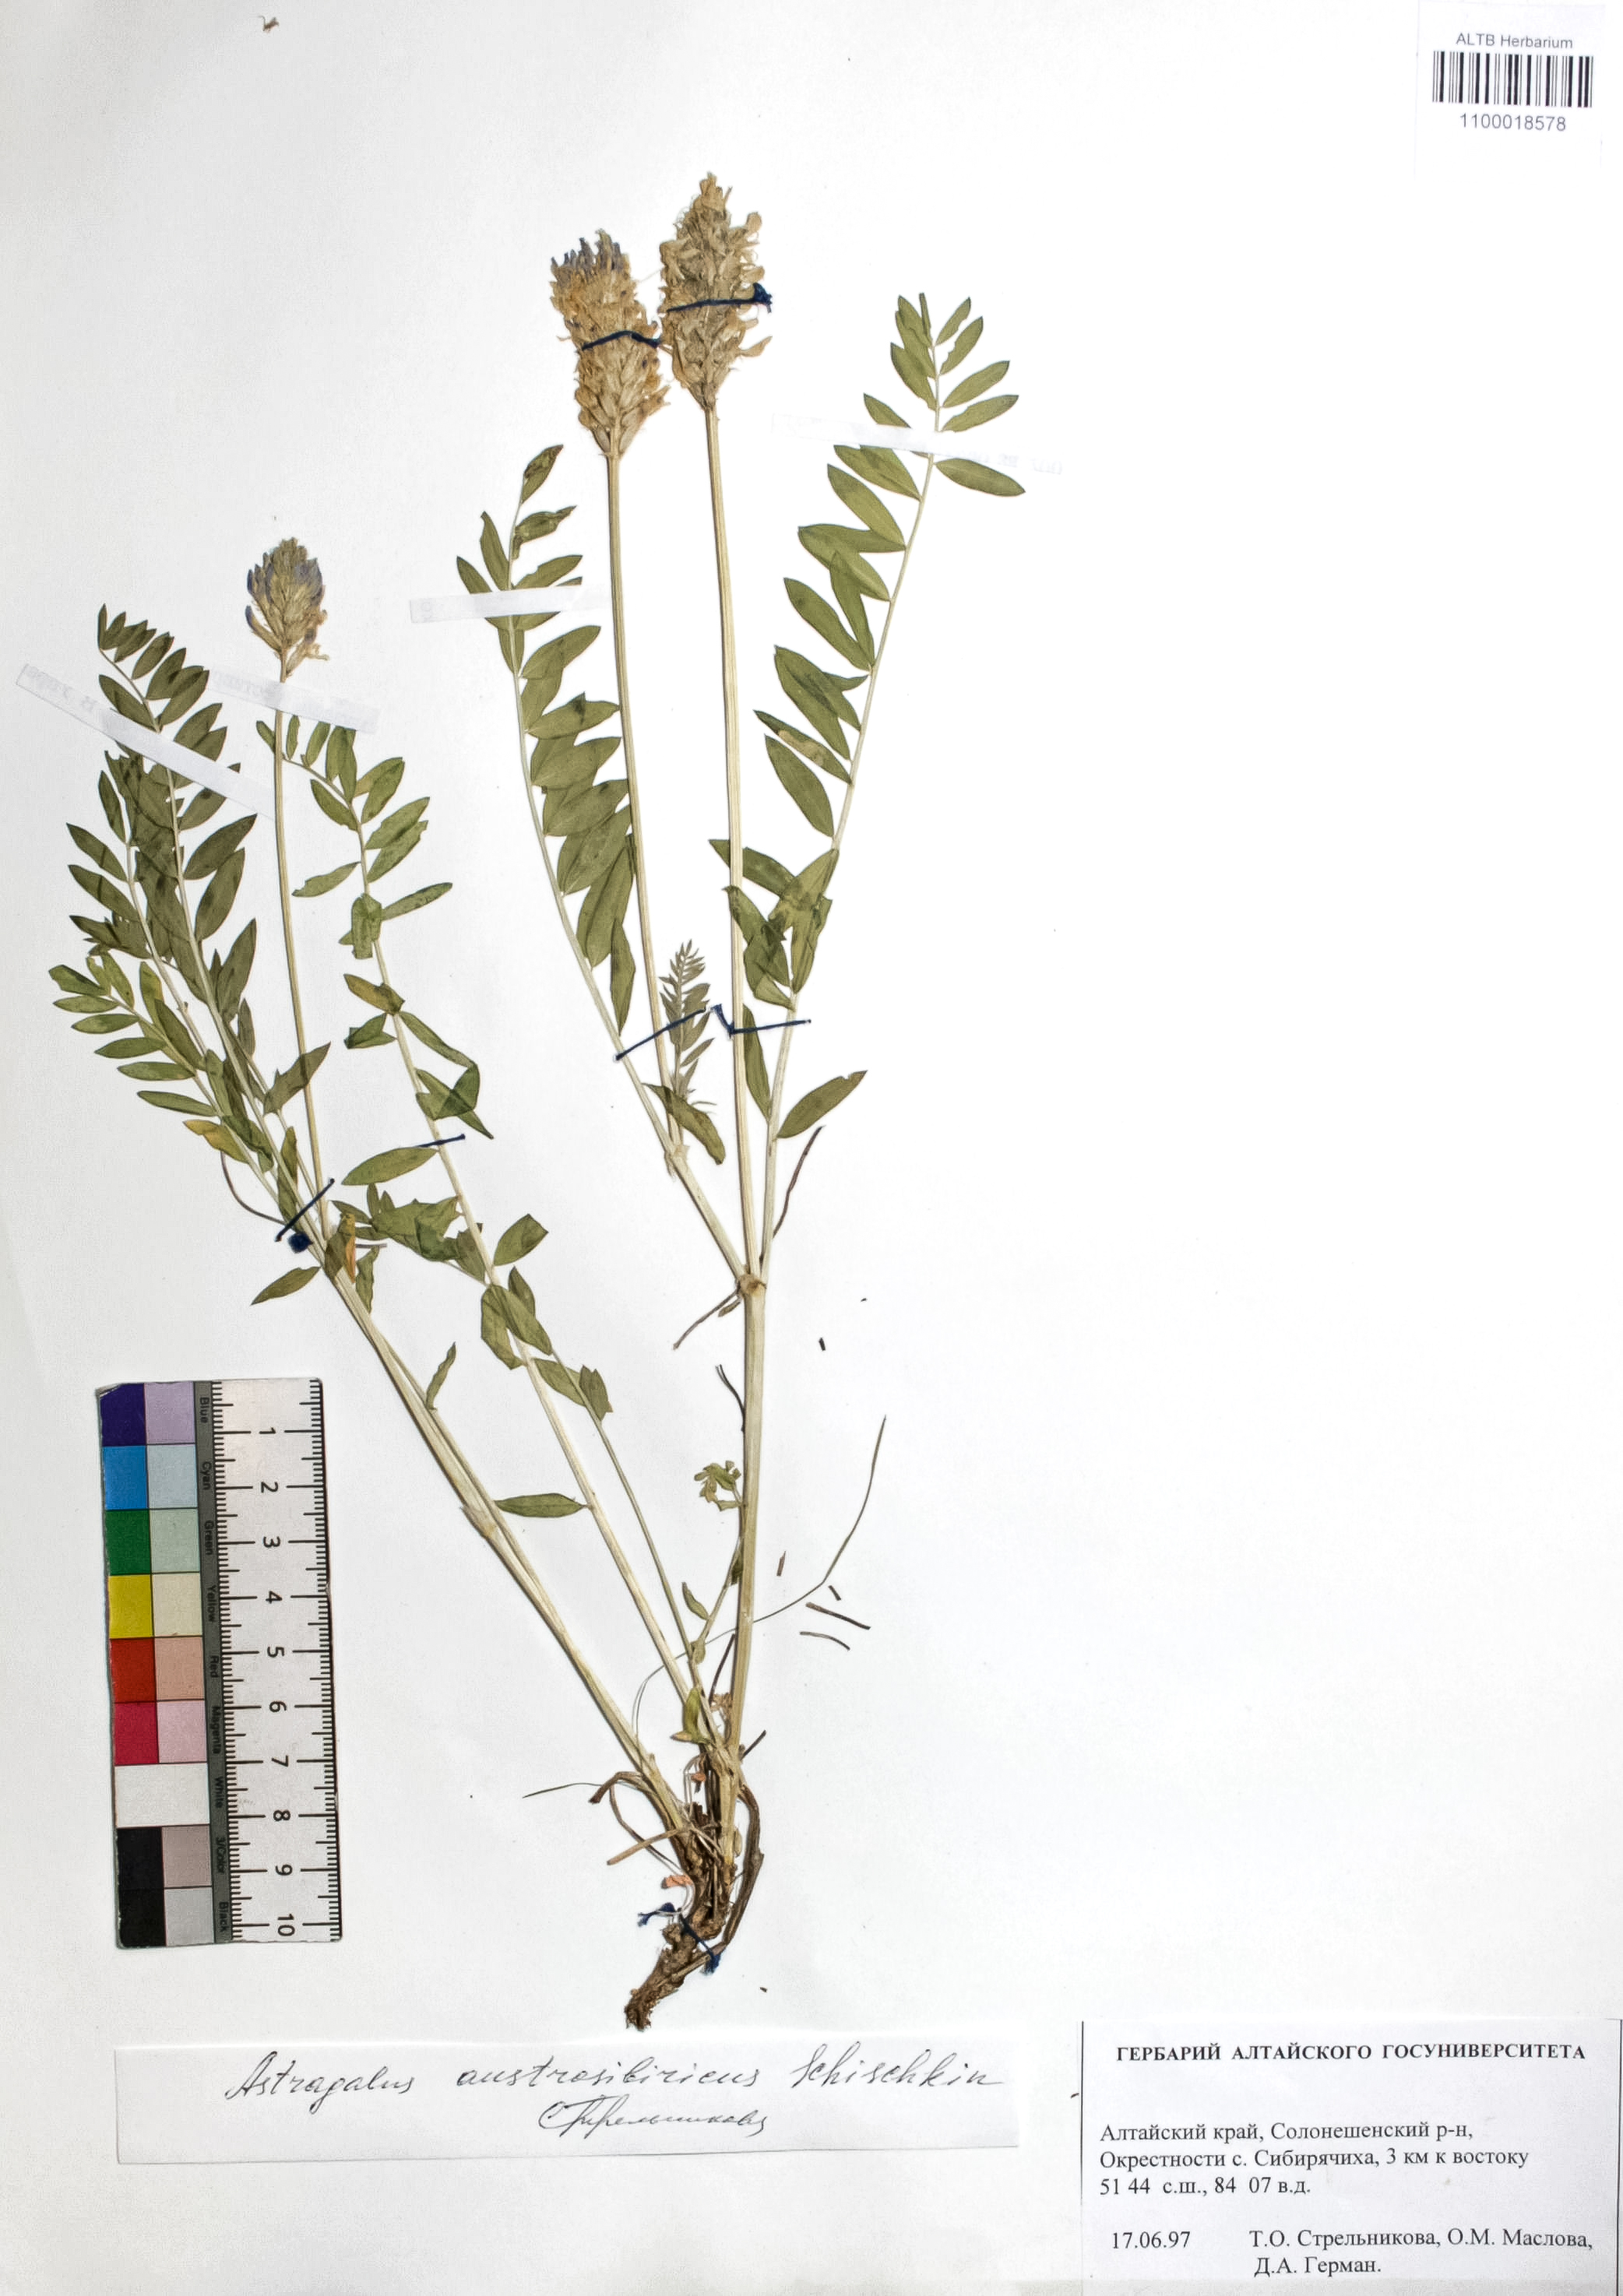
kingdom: Plantae
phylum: Tracheophyta
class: Magnoliopsida
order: Fabales
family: Fabaceae
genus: Astragalus
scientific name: Astragalus laxmannii
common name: Laxmann's milk-vetch
